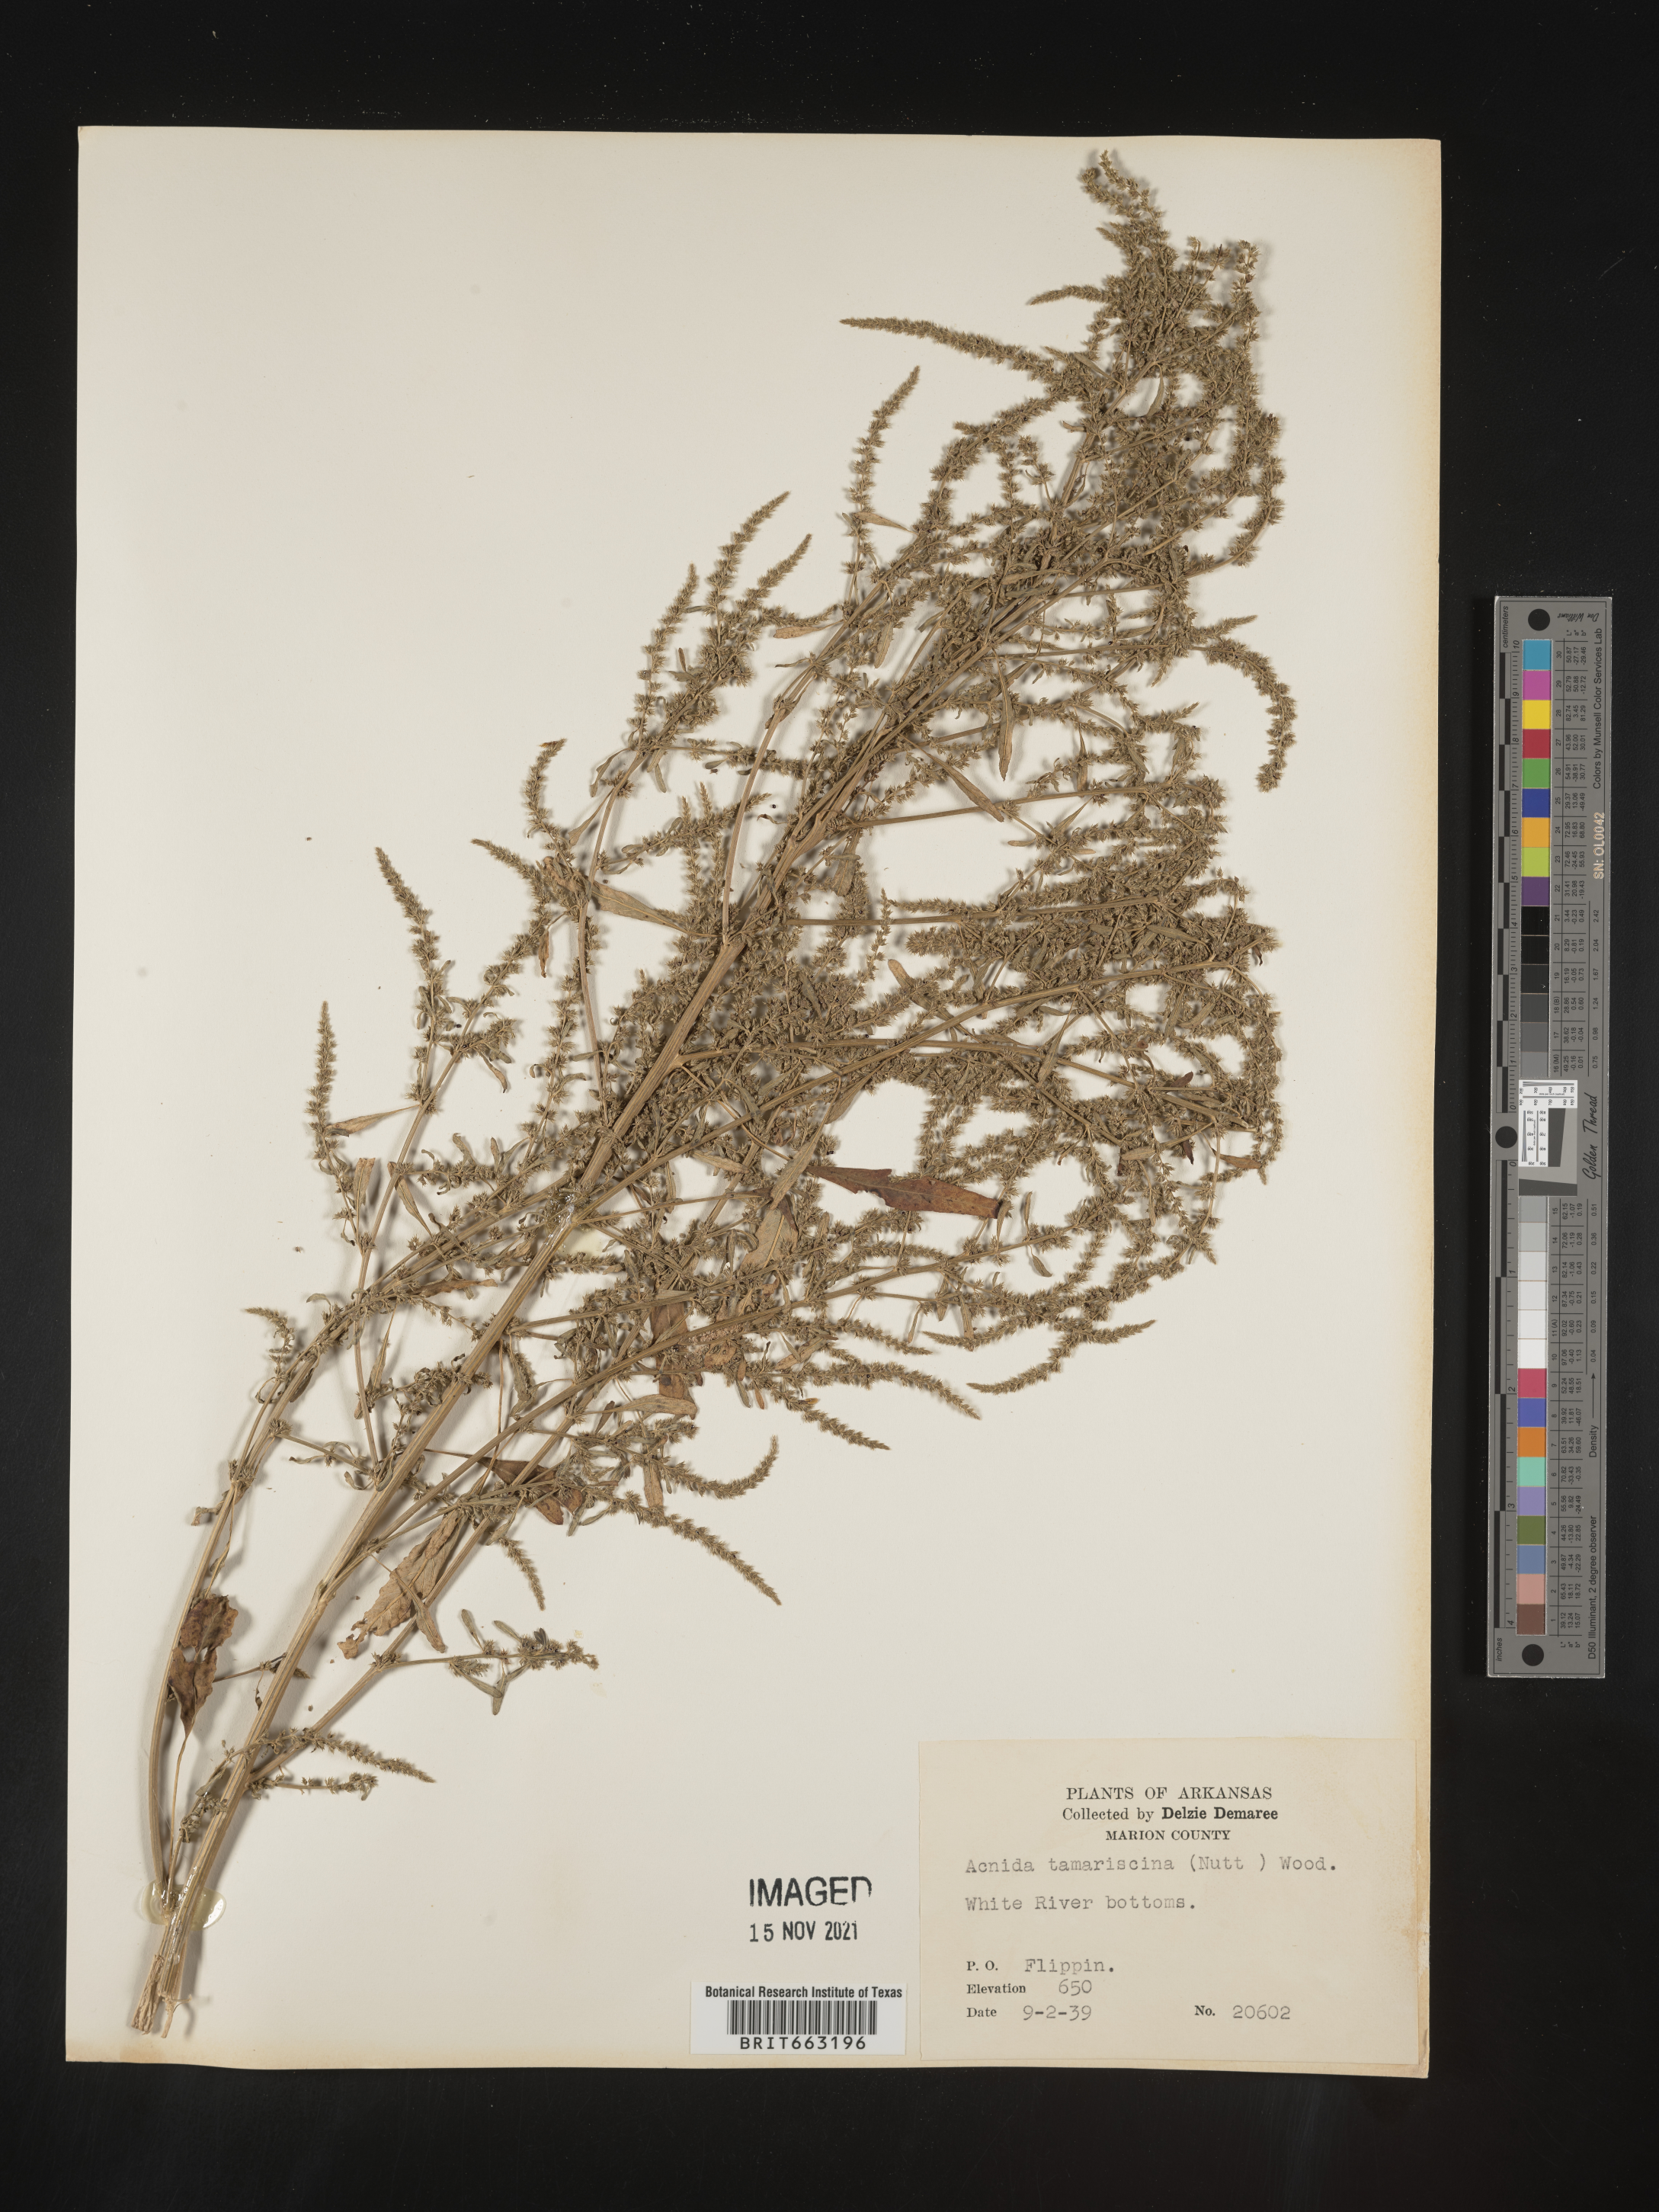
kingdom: Plantae
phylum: Tracheophyta
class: Magnoliopsida
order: Caryophyllales
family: Amaranthaceae
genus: Amaranthus
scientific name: Amaranthus tamariscinus
